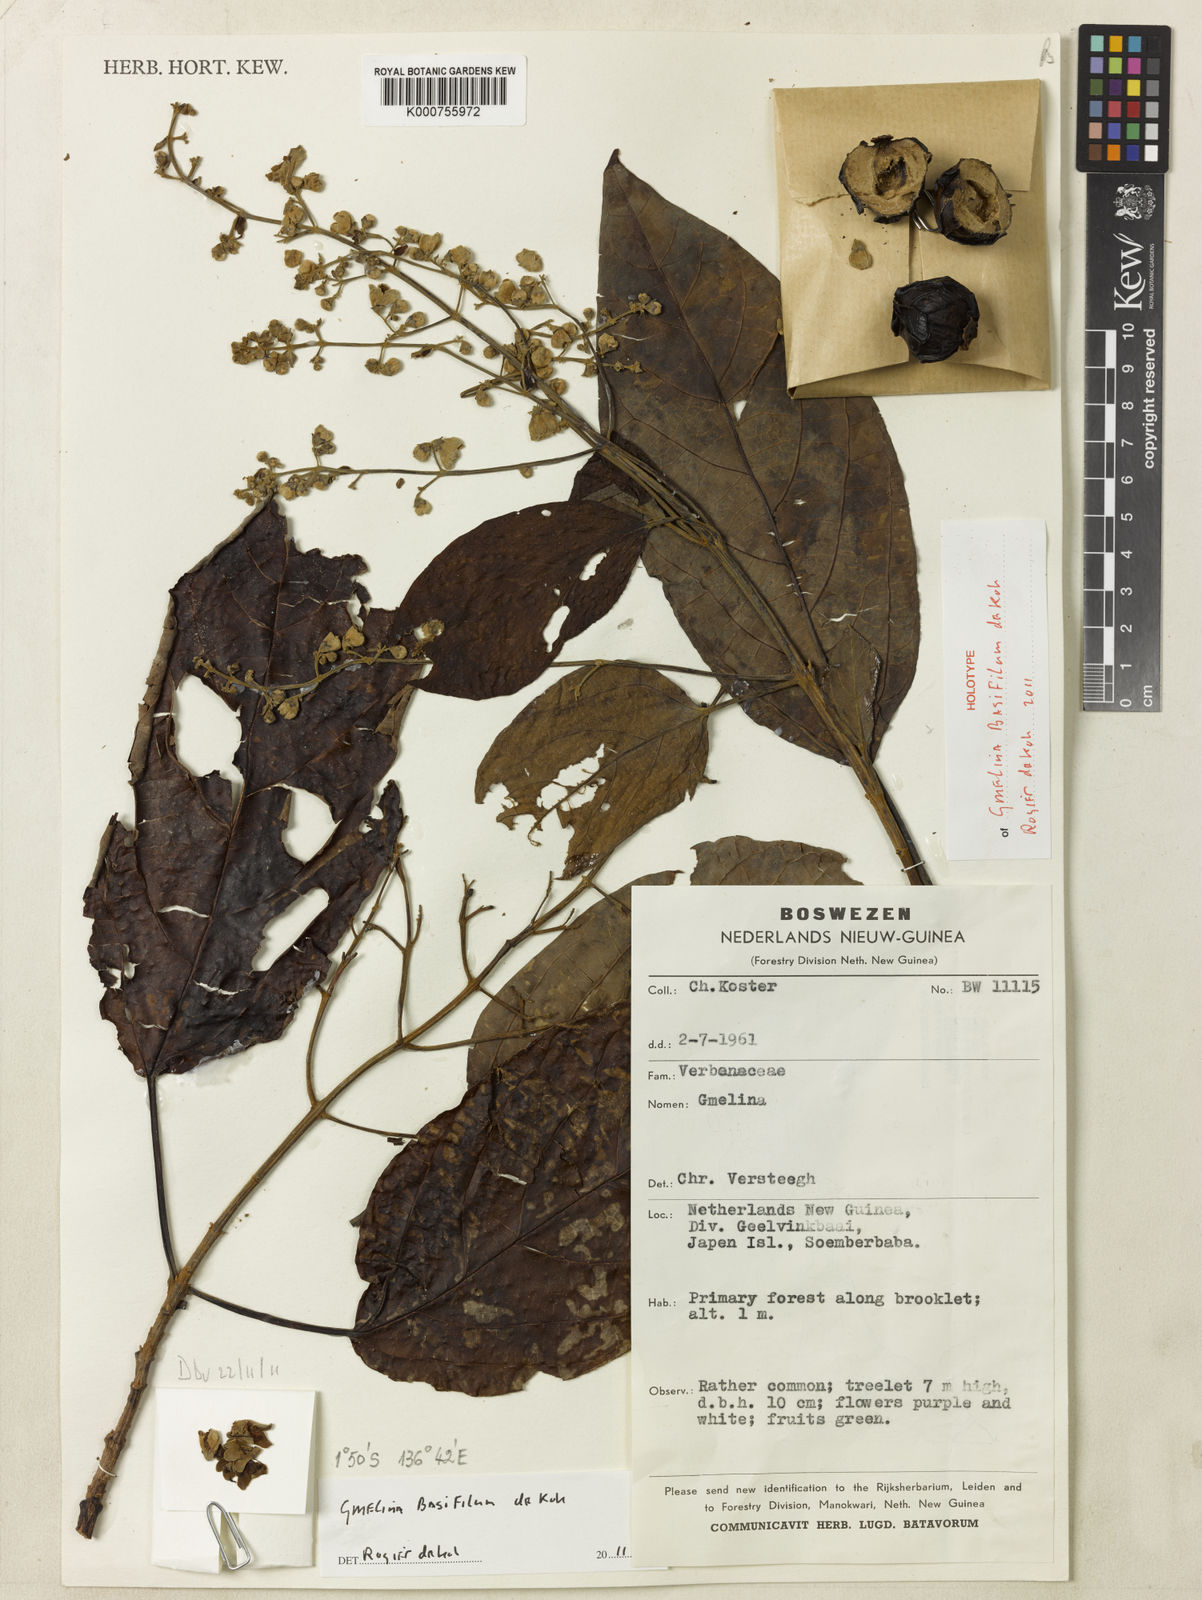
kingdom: Plantae
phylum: Tracheophyta
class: Magnoliopsida
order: Lamiales
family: Lamiaceae
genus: Gmelina
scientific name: Gmelina basifilum
